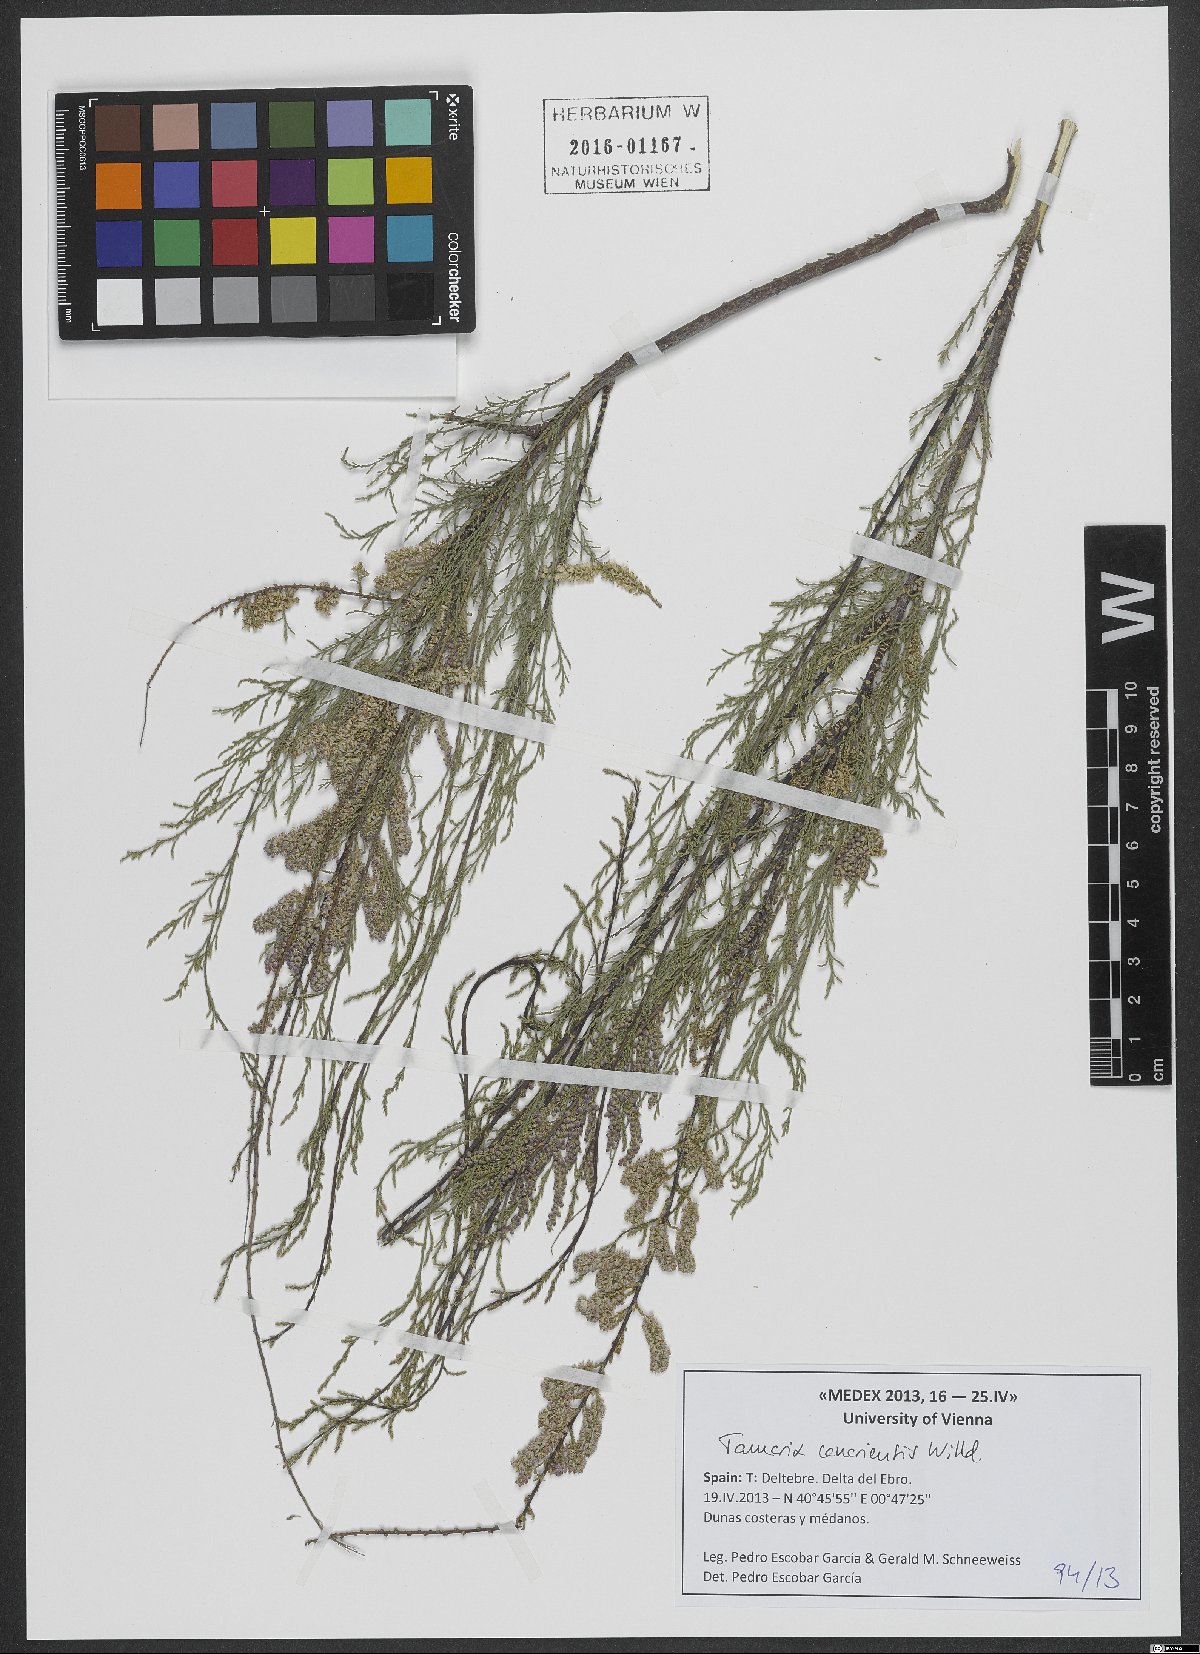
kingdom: Plantae
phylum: Tracheophyta
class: Magnoliopsida
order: Caryophyllales
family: Tamaricaceae
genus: Tamarix
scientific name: Tamarix canariensis
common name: Canary island tamarisk
